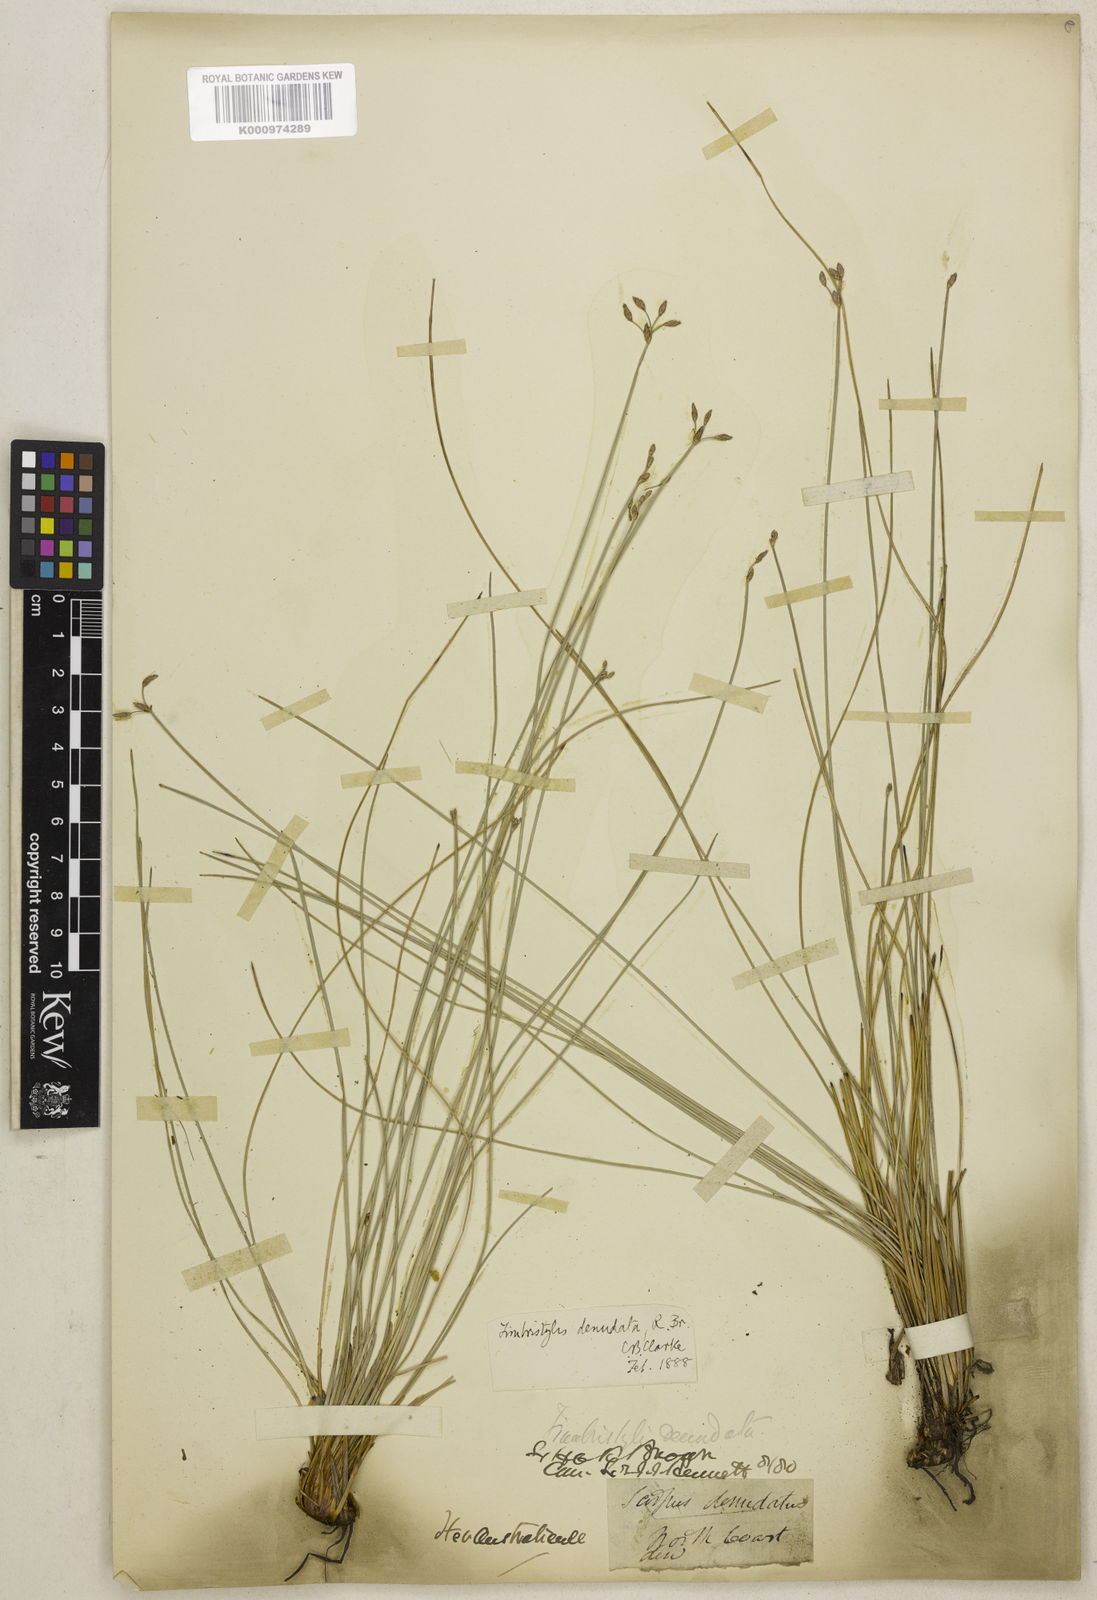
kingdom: Plantae
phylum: Tracheophyta
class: Liliopsida
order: Poales
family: Cyperaceae
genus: Fimbristylis
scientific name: Fimbristylis denudata
